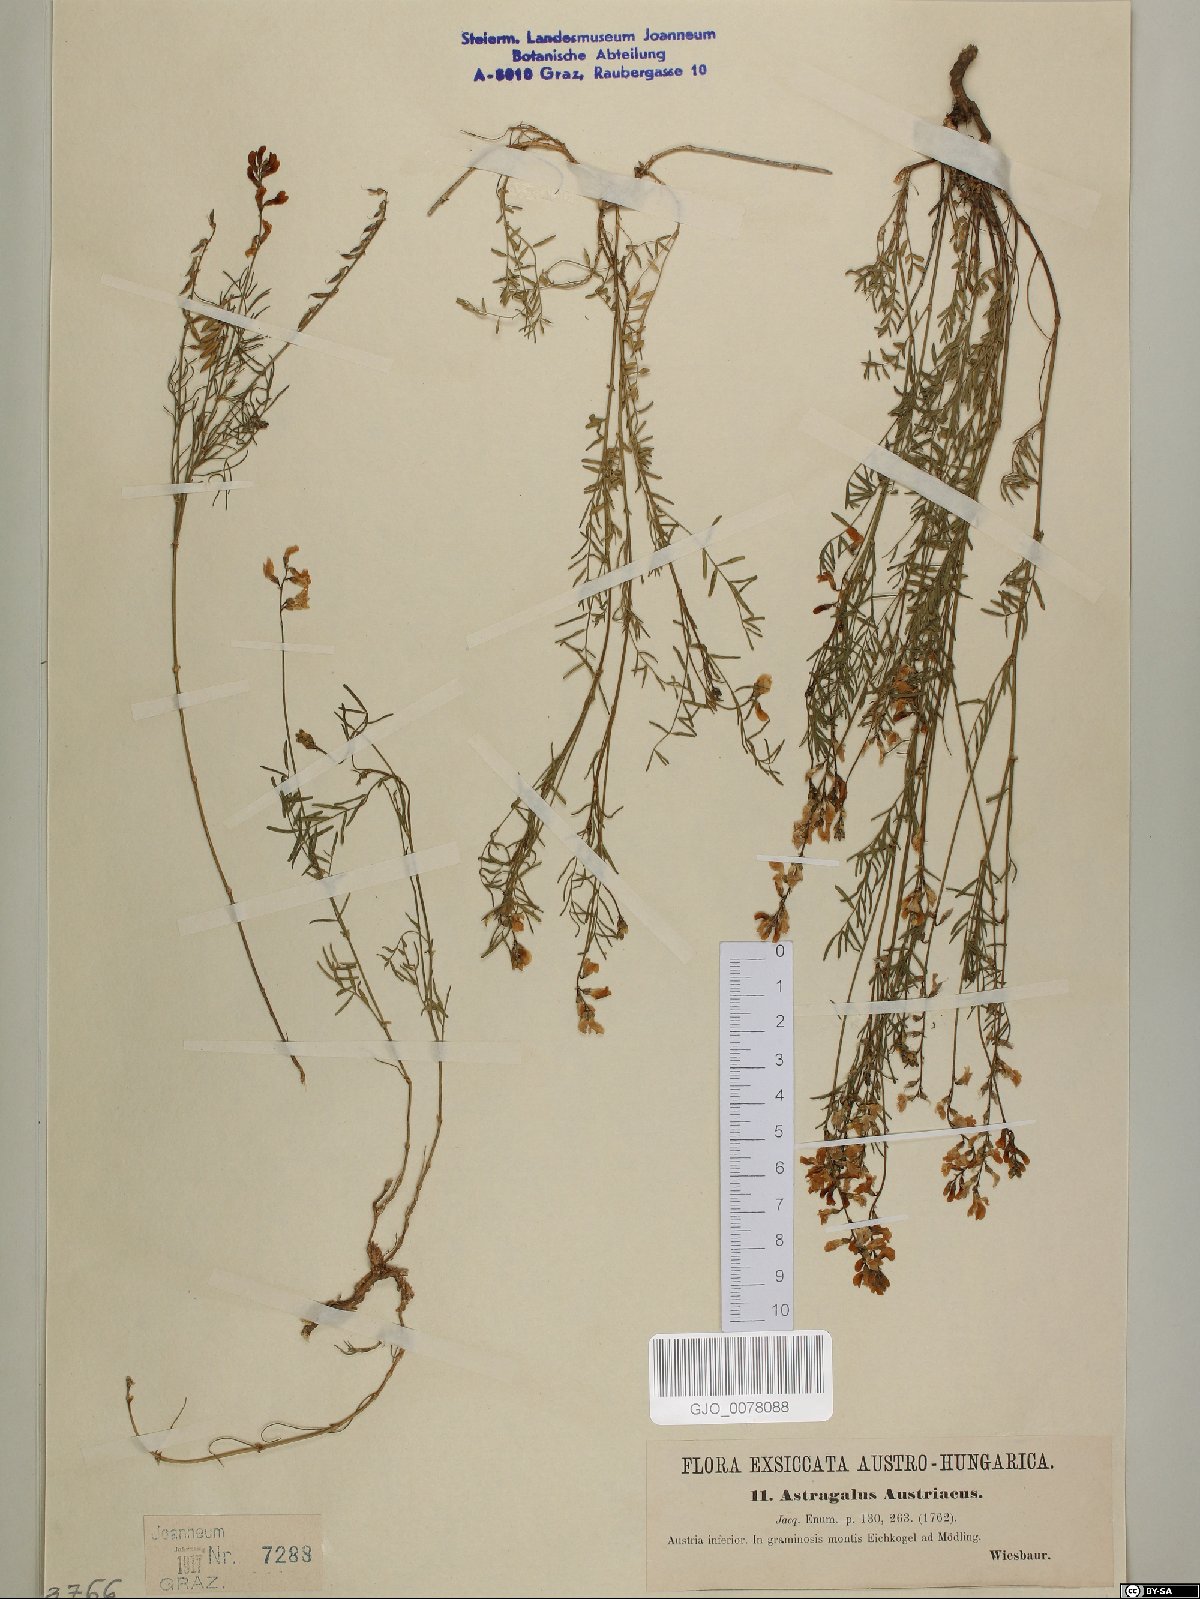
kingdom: Plantae
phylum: Tracheophyta
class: Magnoliopsida
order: Fabales
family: Fabaceae
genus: Astragalus
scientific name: Astragalus austriacus
